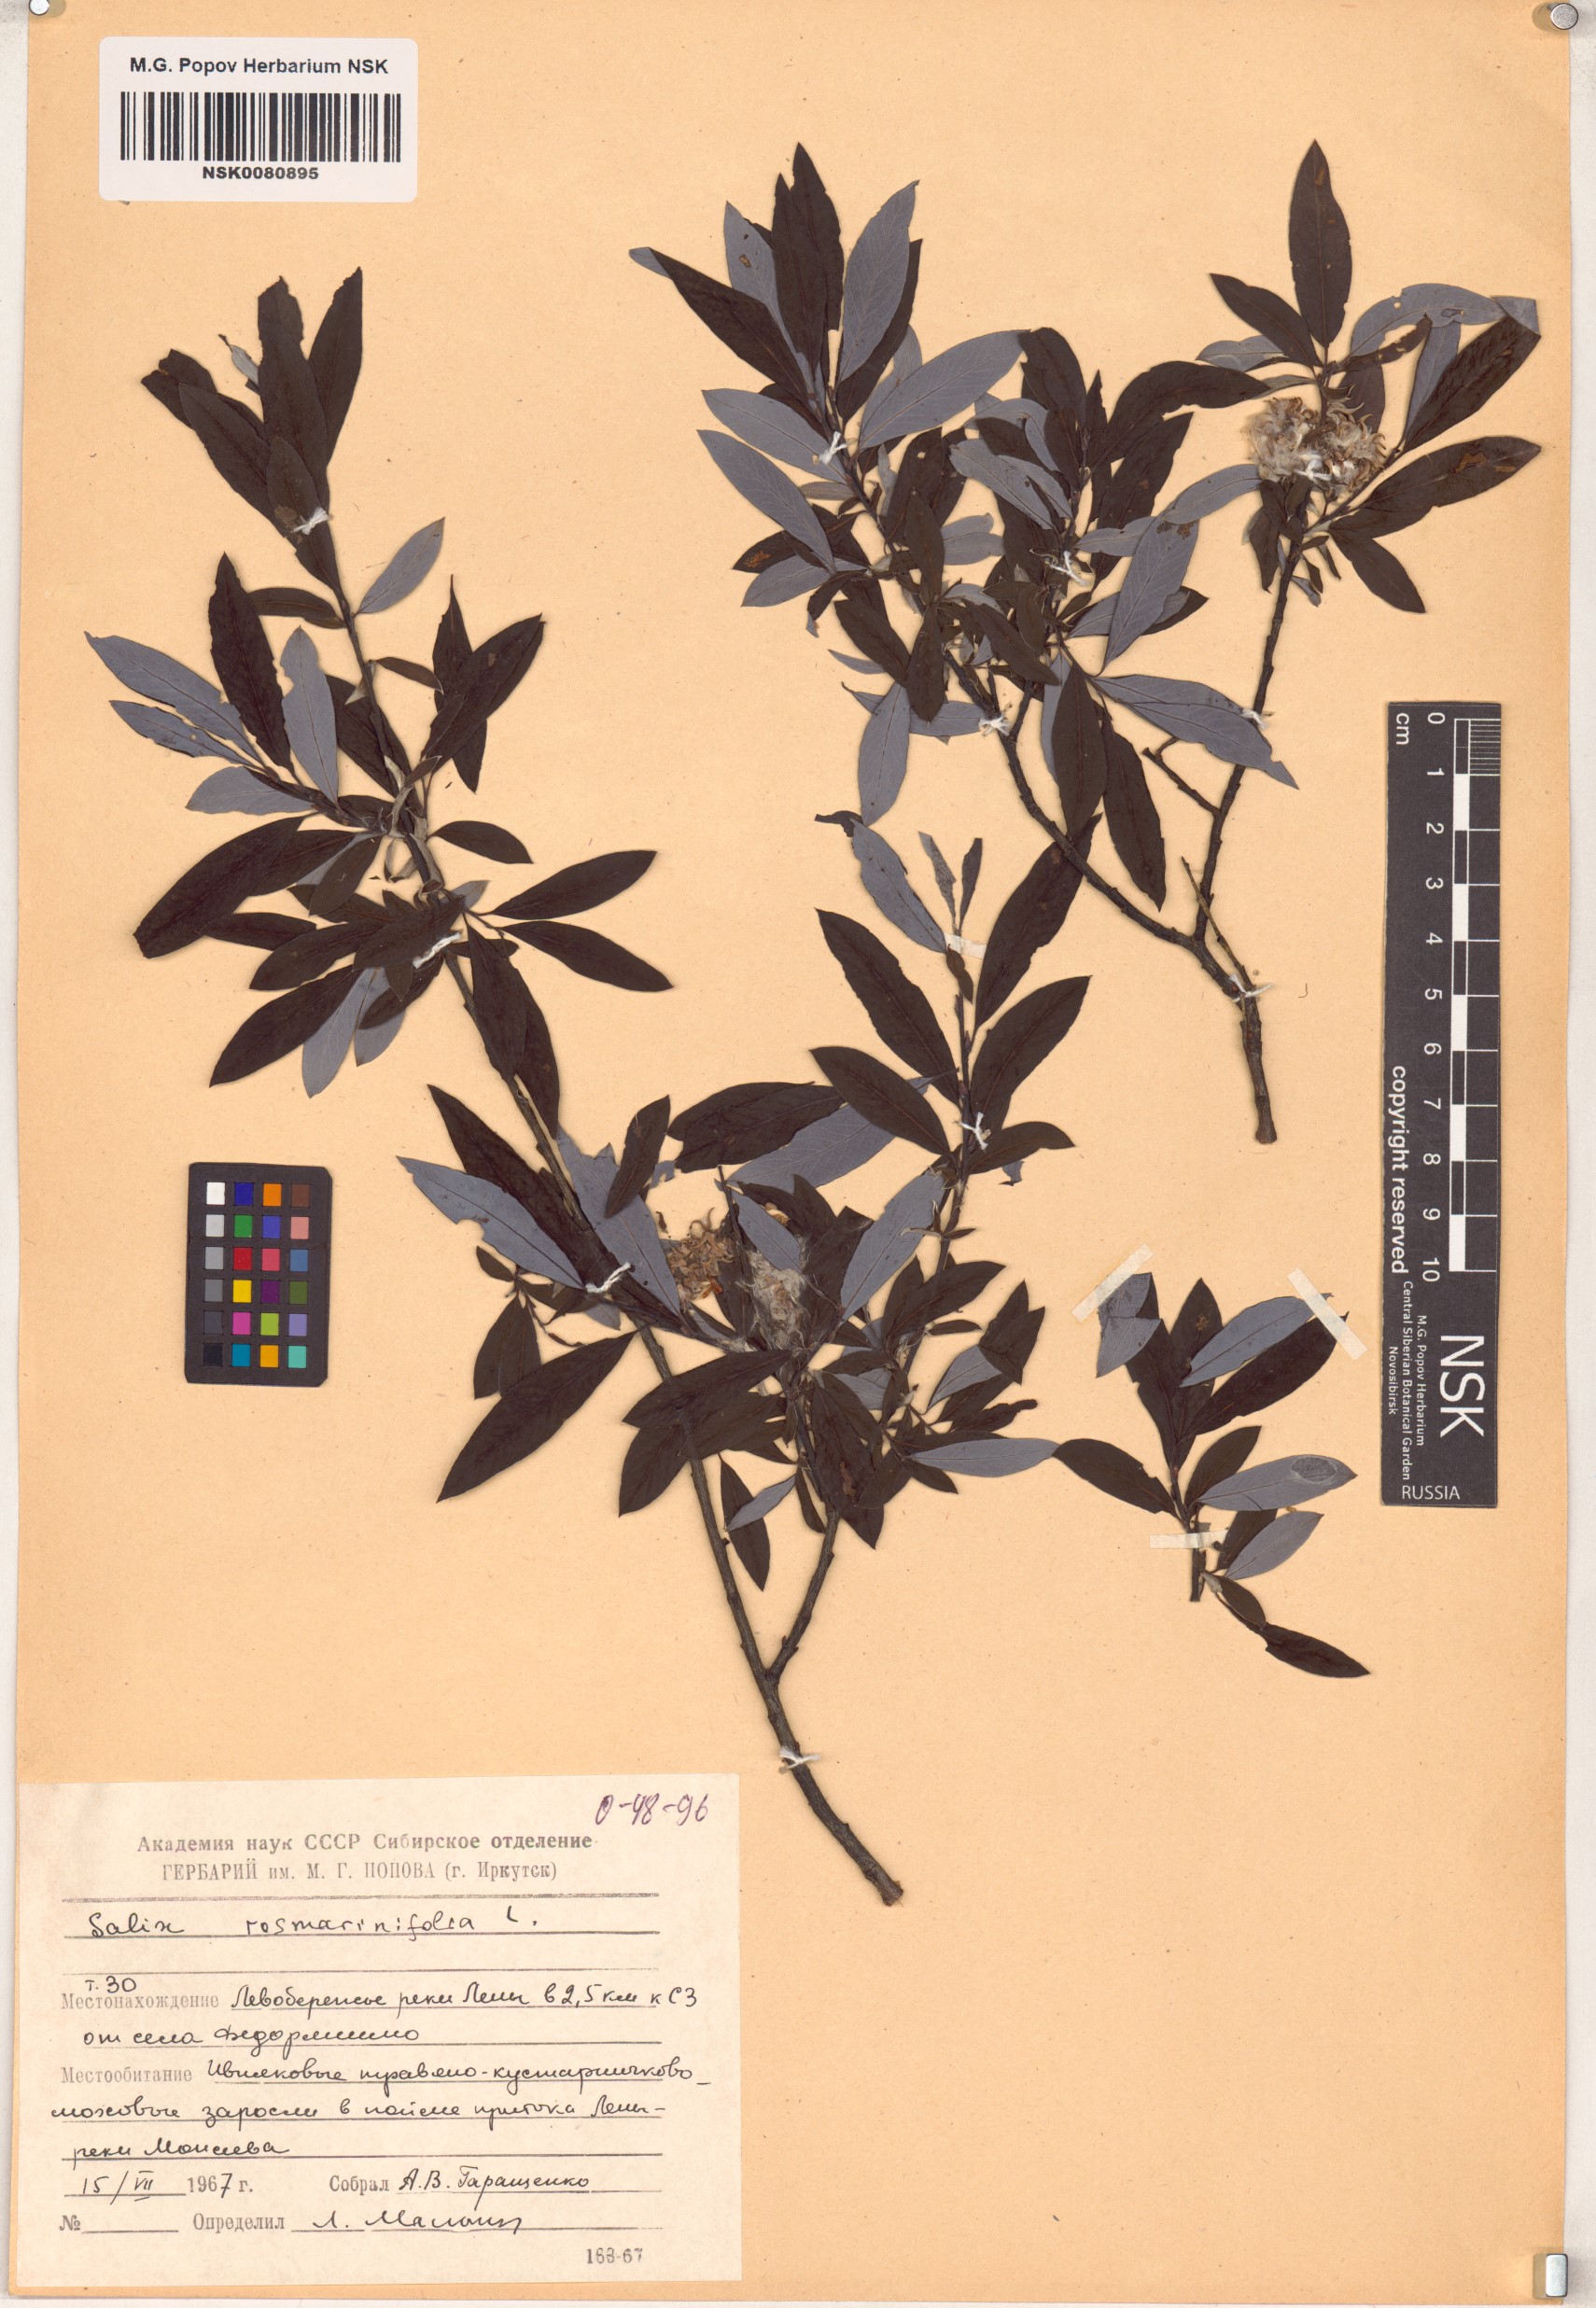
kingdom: Plantae
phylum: Tracheophyta
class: Magnoliopsida
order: Malpighiales
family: Salicaceae
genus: Salix
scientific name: Salix rosmarinifolia
